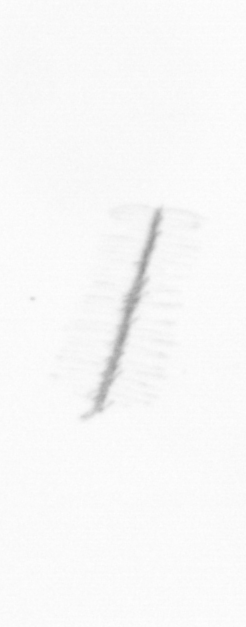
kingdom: Chromista
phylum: Ochrophyta
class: Bacillariophyceae
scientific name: Bacillariophyceae
